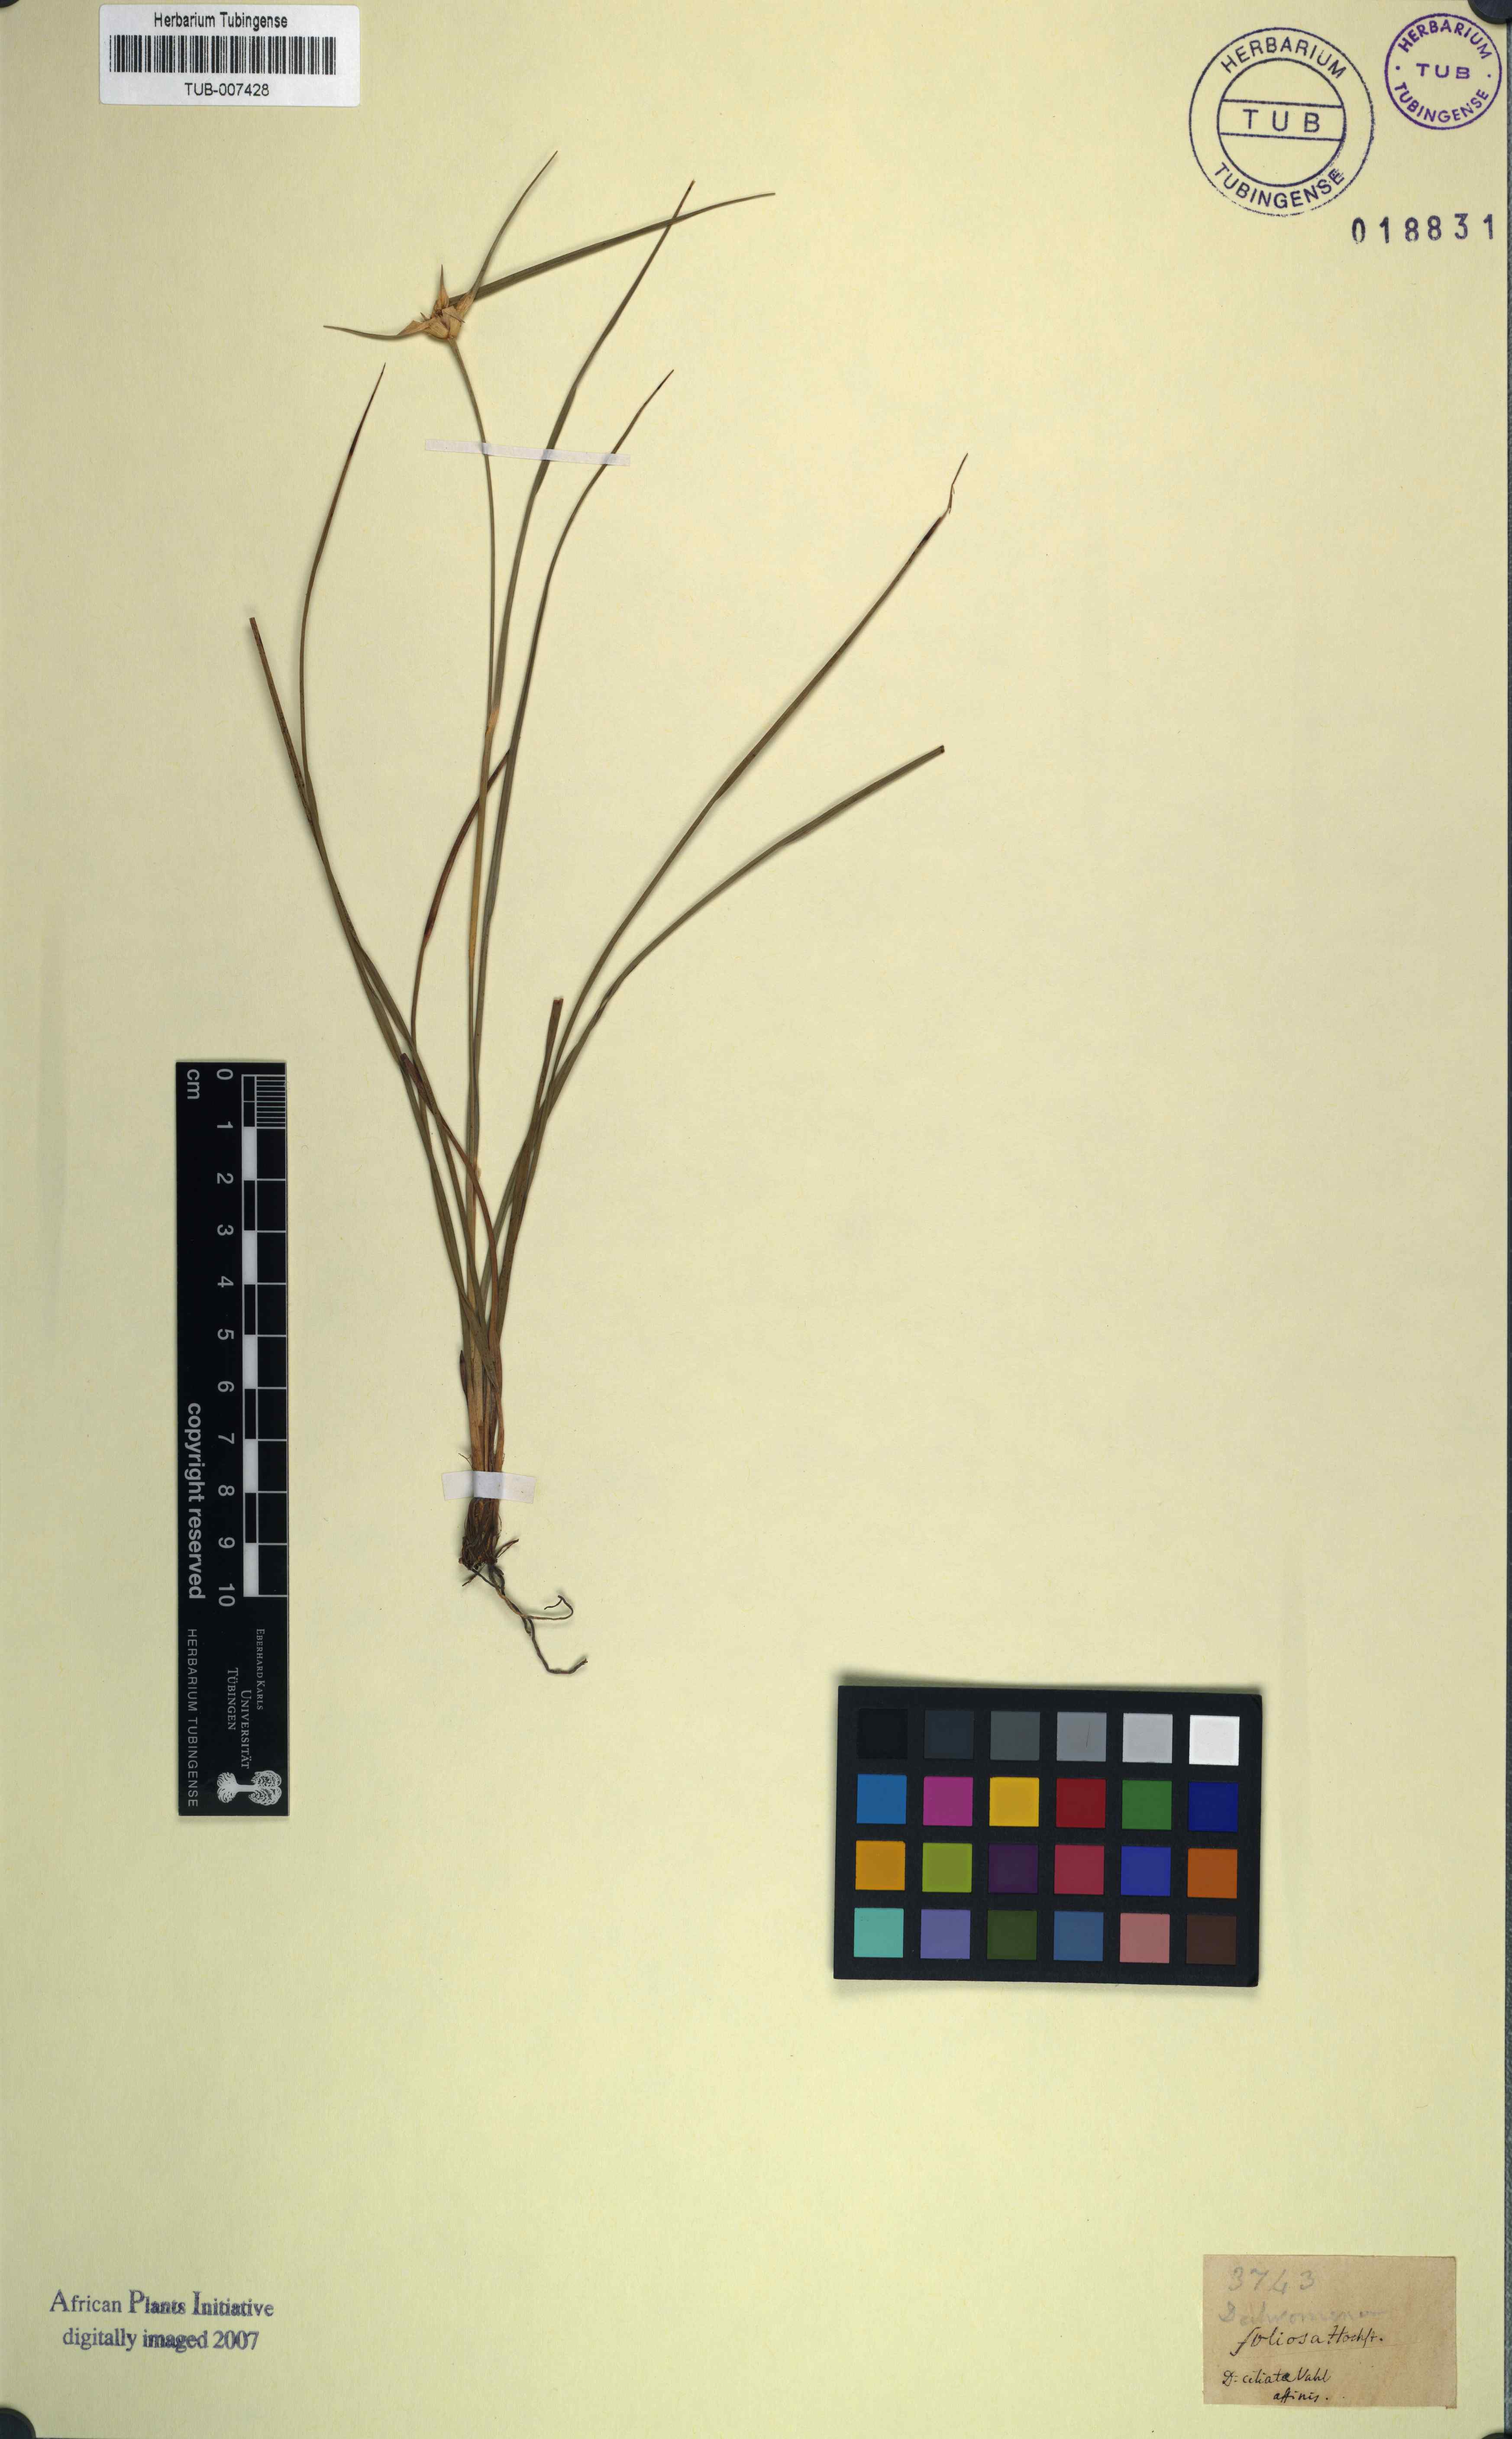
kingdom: Plantae
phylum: Tracheophyta
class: Liliopsida
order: Poales
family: Cyperaceae
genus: Rhynchospora
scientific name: Rhynchospora albiceps
